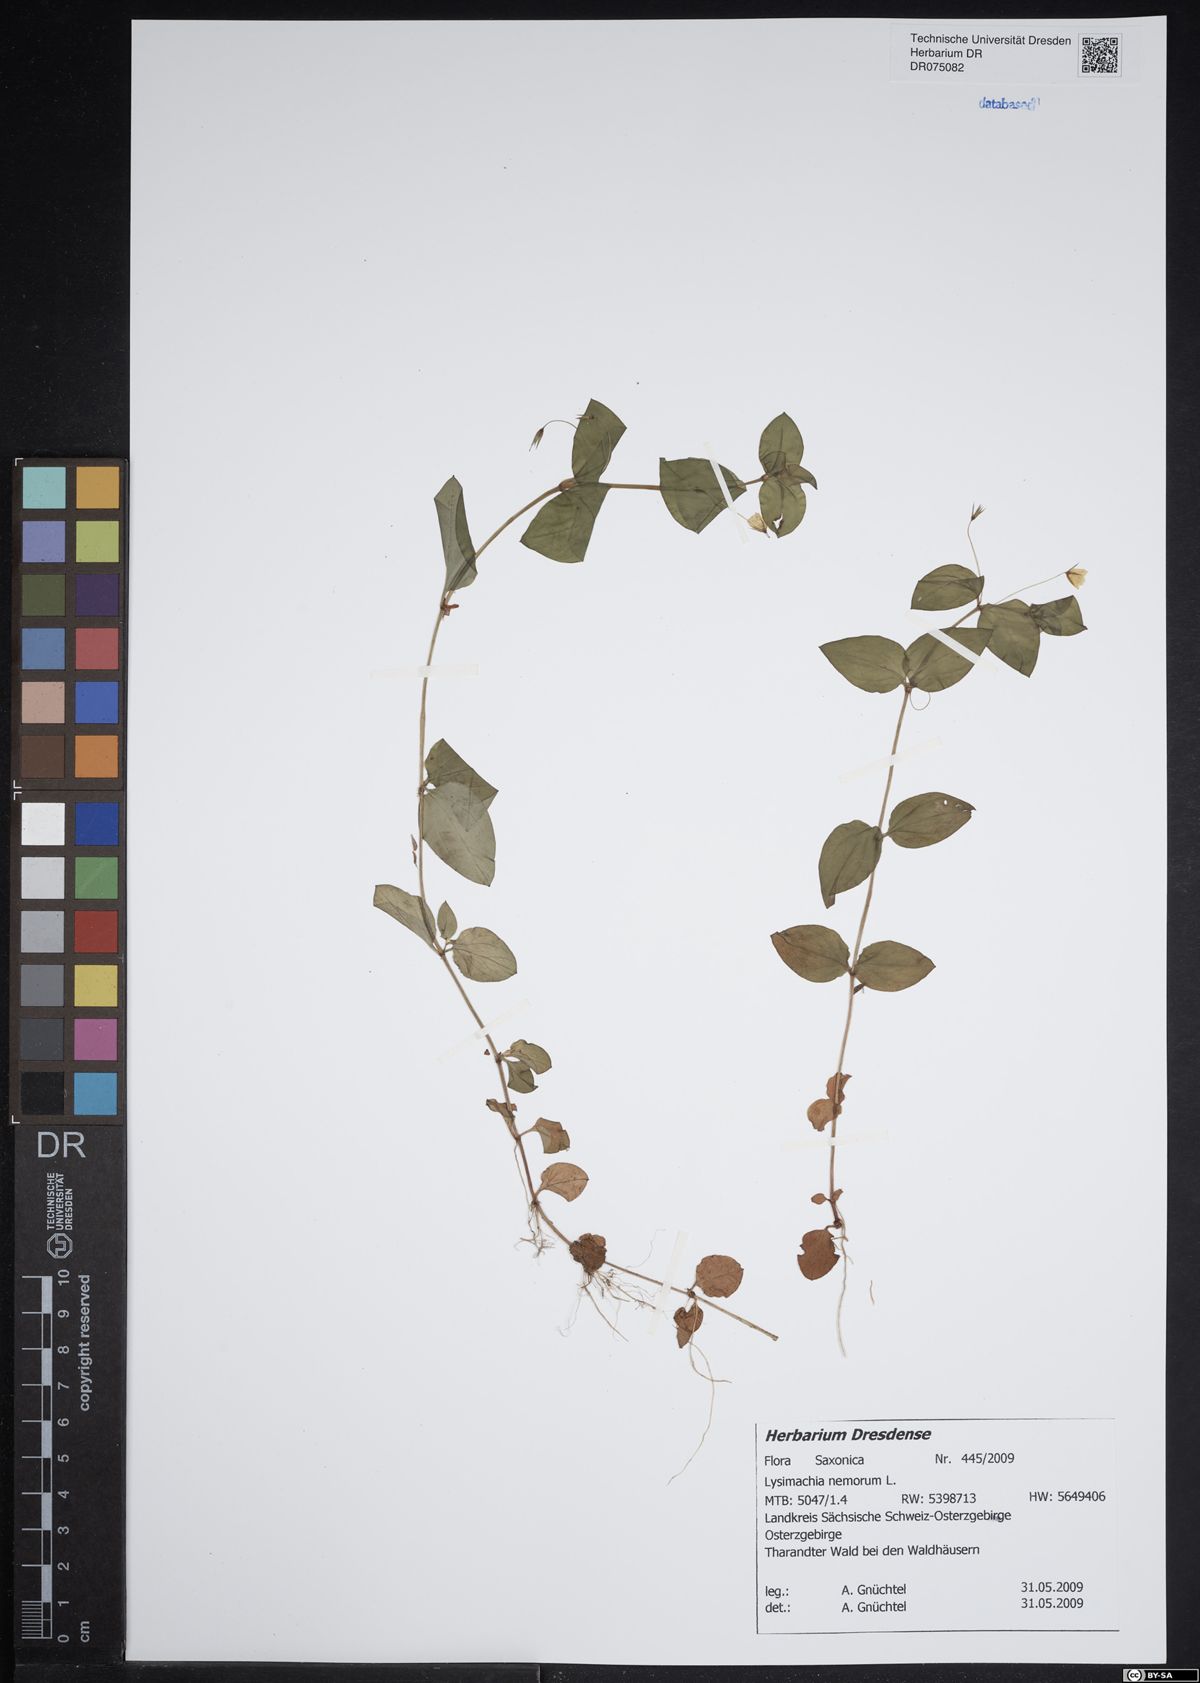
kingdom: Plantae
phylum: Tracheophyta
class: Magnoliopsida
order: Ericales
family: Primulaceae
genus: Lysimachia
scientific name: Lysimachia nemorum
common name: Yellow pimpernel
